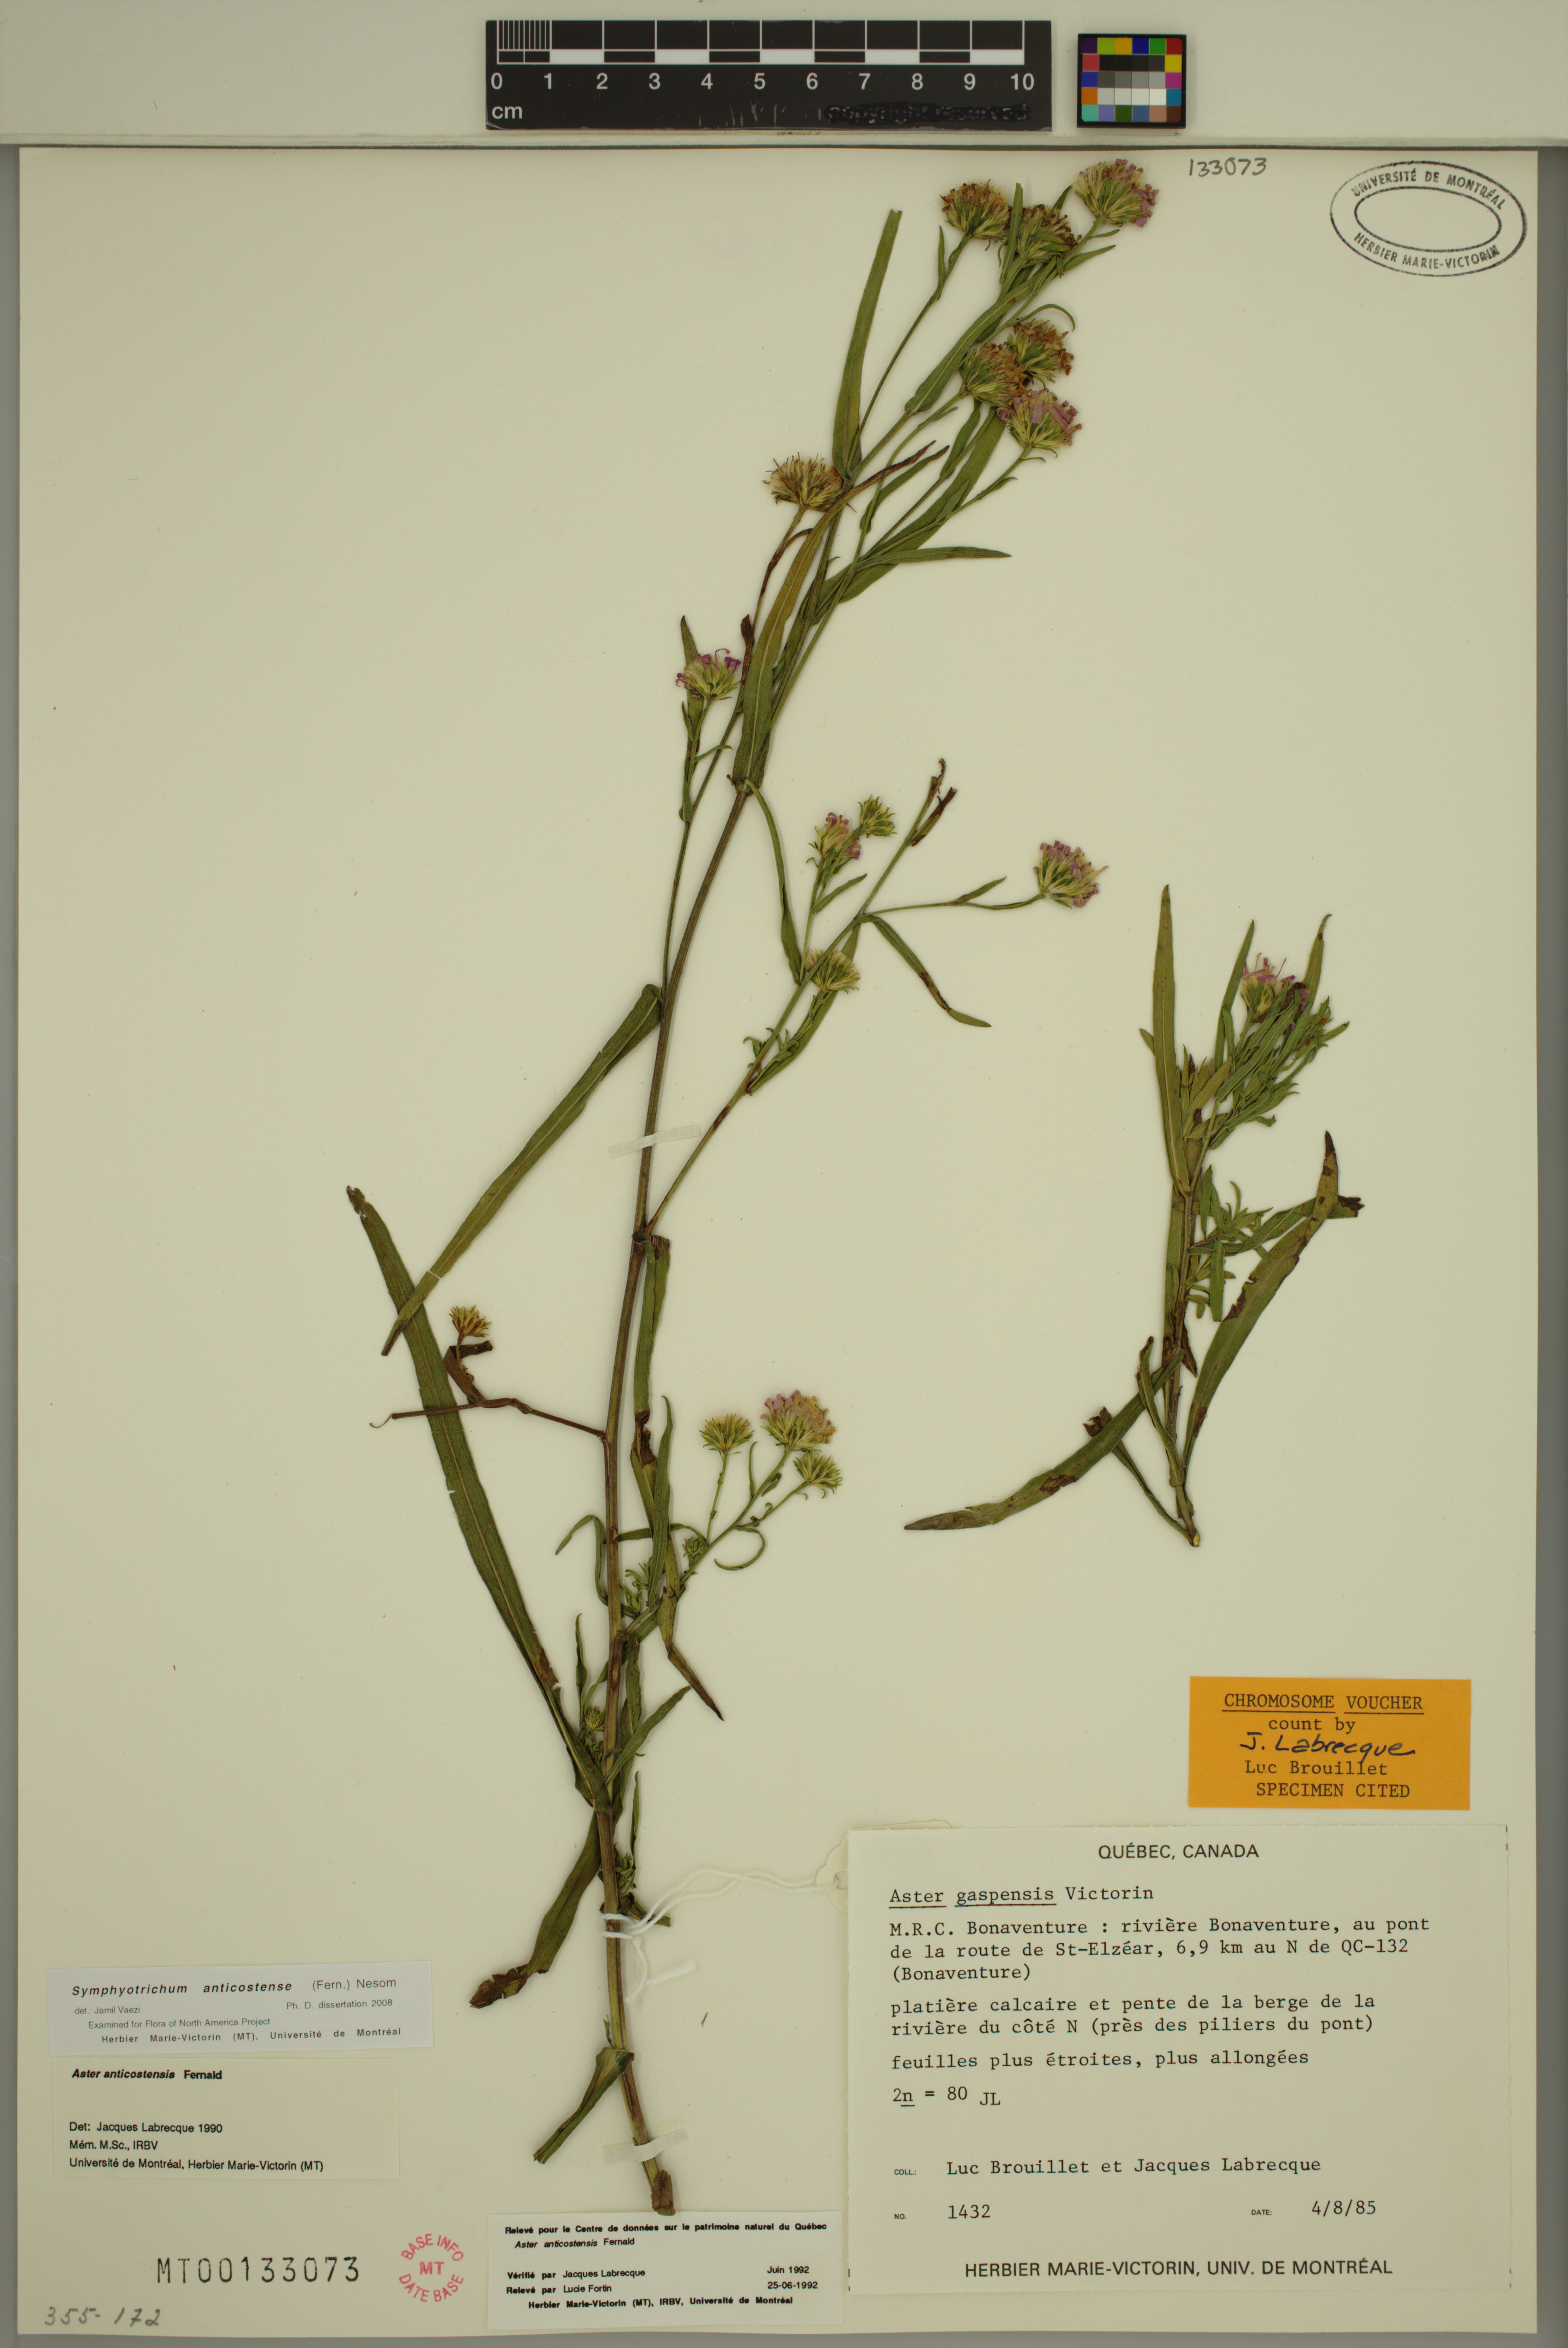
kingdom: Plantae
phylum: Tracheophyta
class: Magnoliopsida
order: Asterales
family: Asteraceae
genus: Symphyotrichum
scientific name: Symphyotrichum anticostense
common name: Anticosti island aster
